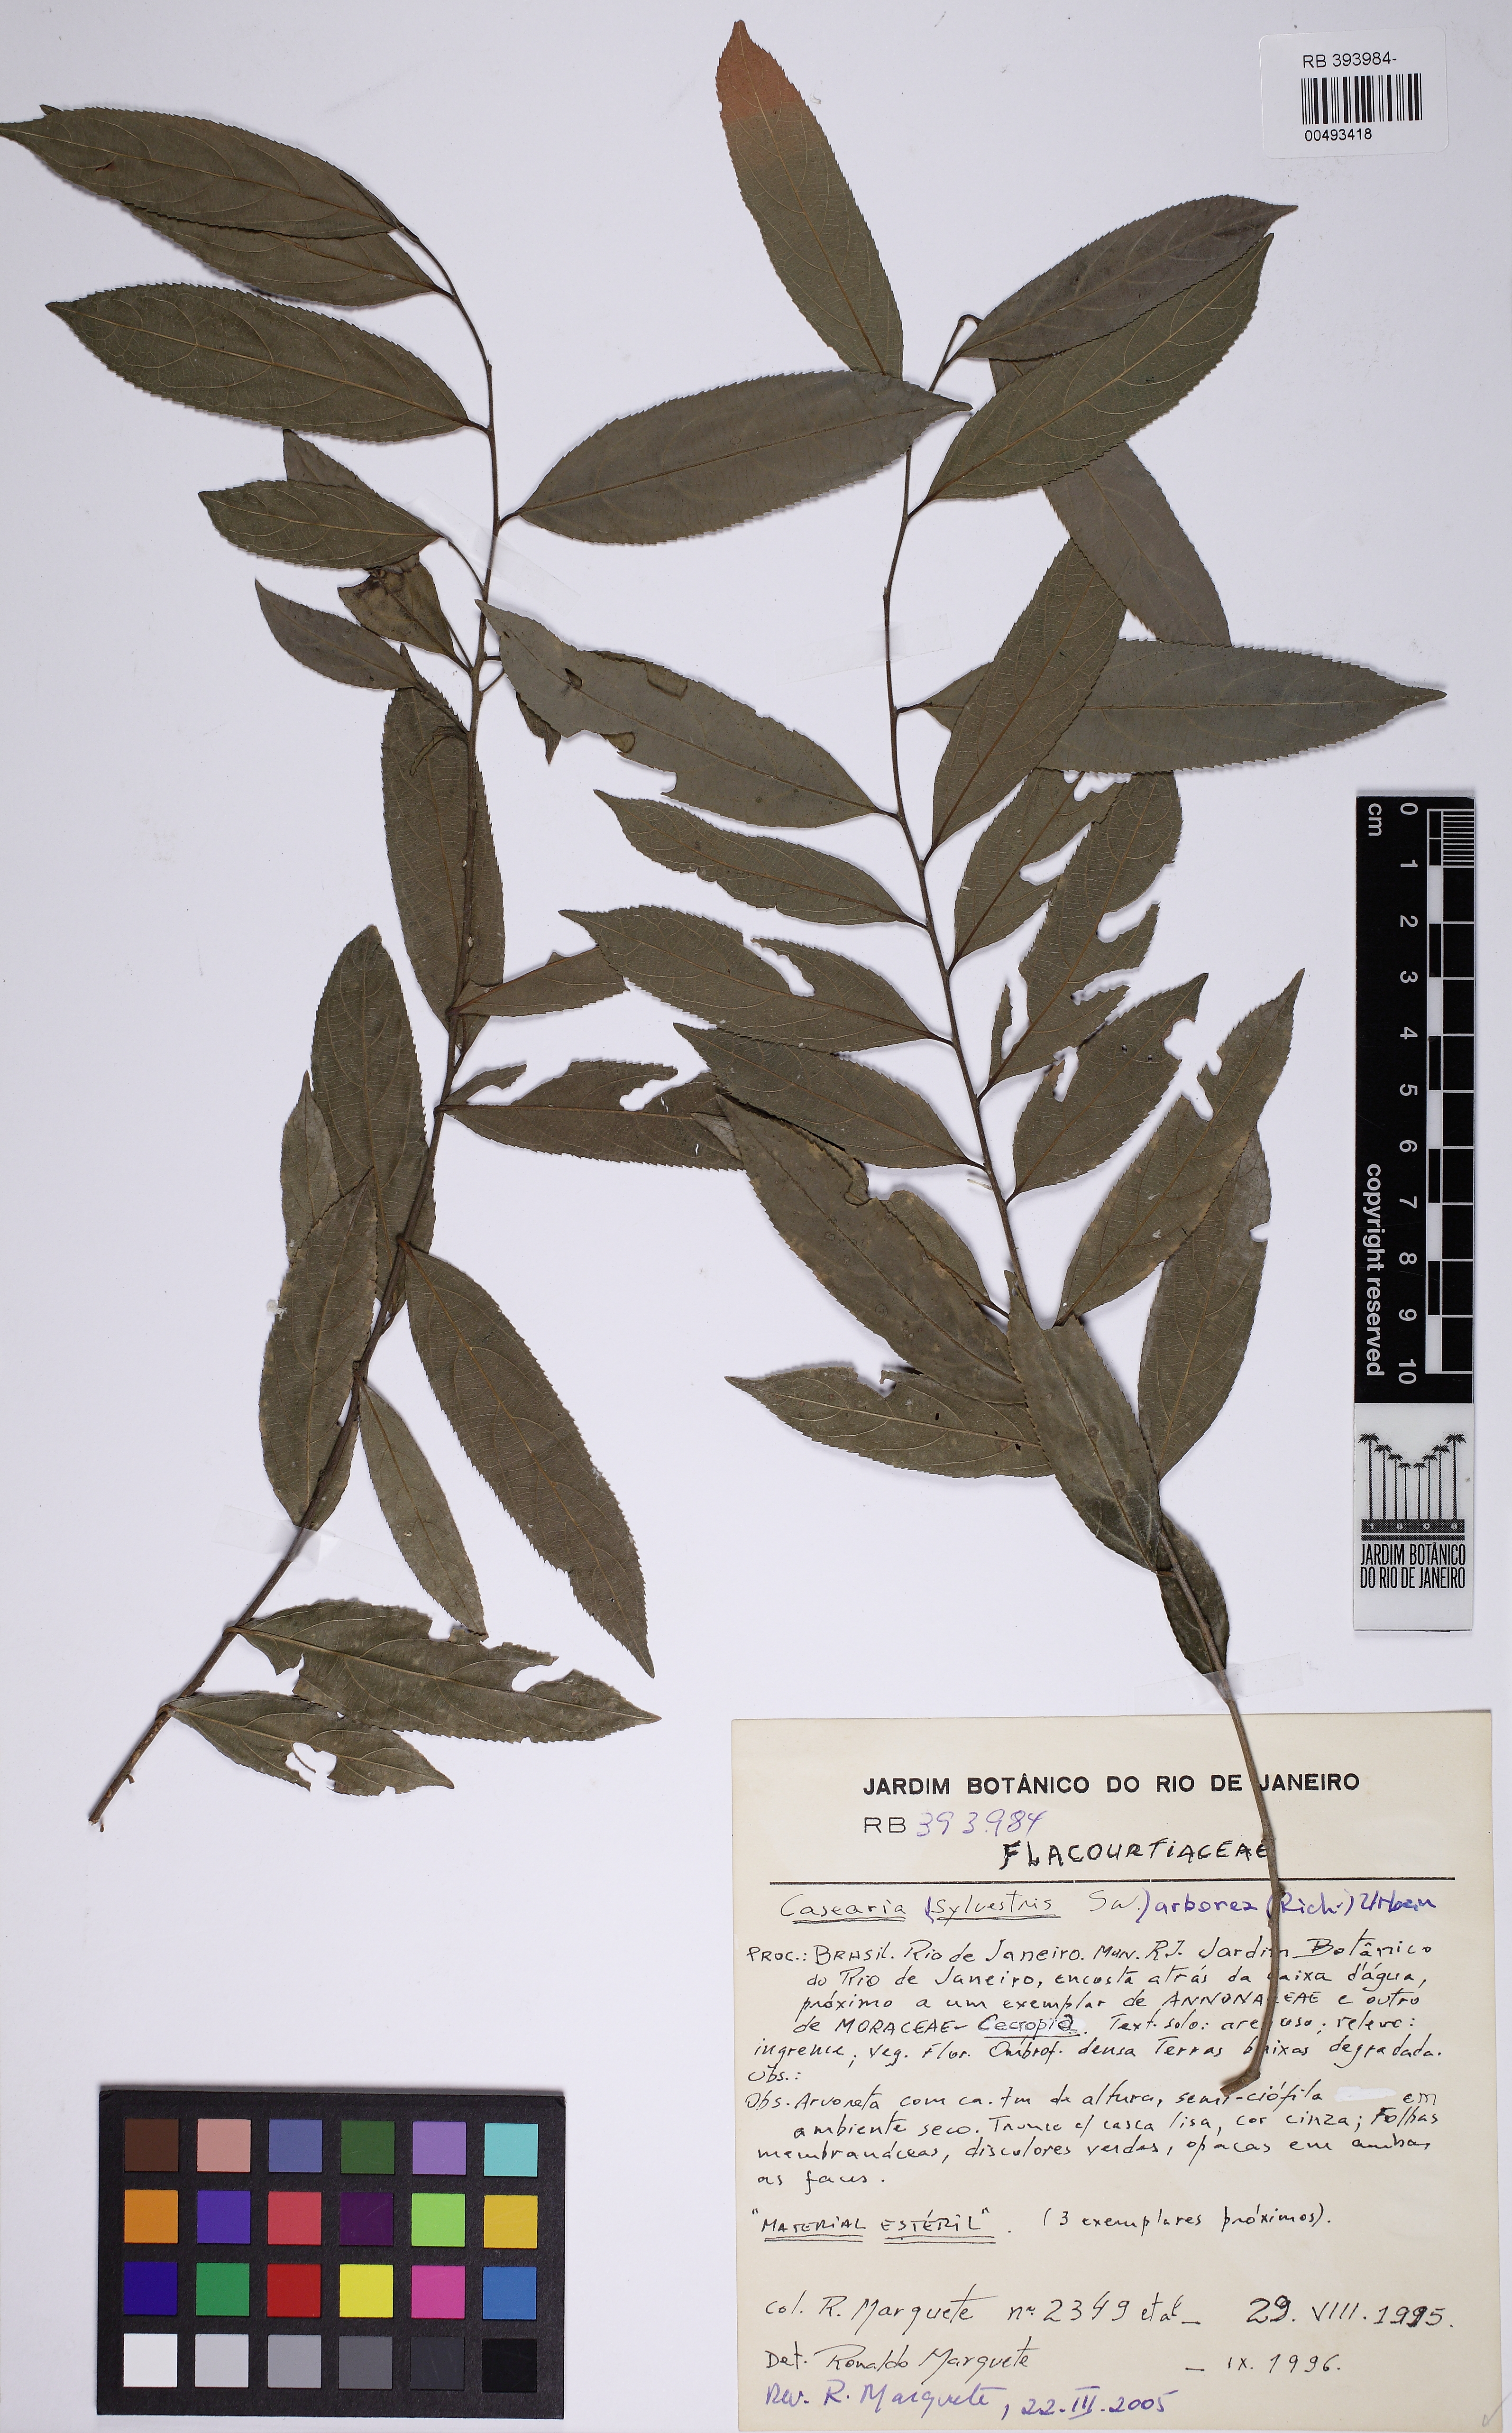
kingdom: Plantae
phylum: Tracheophyta
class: Magnoliopsida
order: Malpighiales
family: Salicaceae
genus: Casearia
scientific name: Casearia sylvestris
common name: Wild sage
